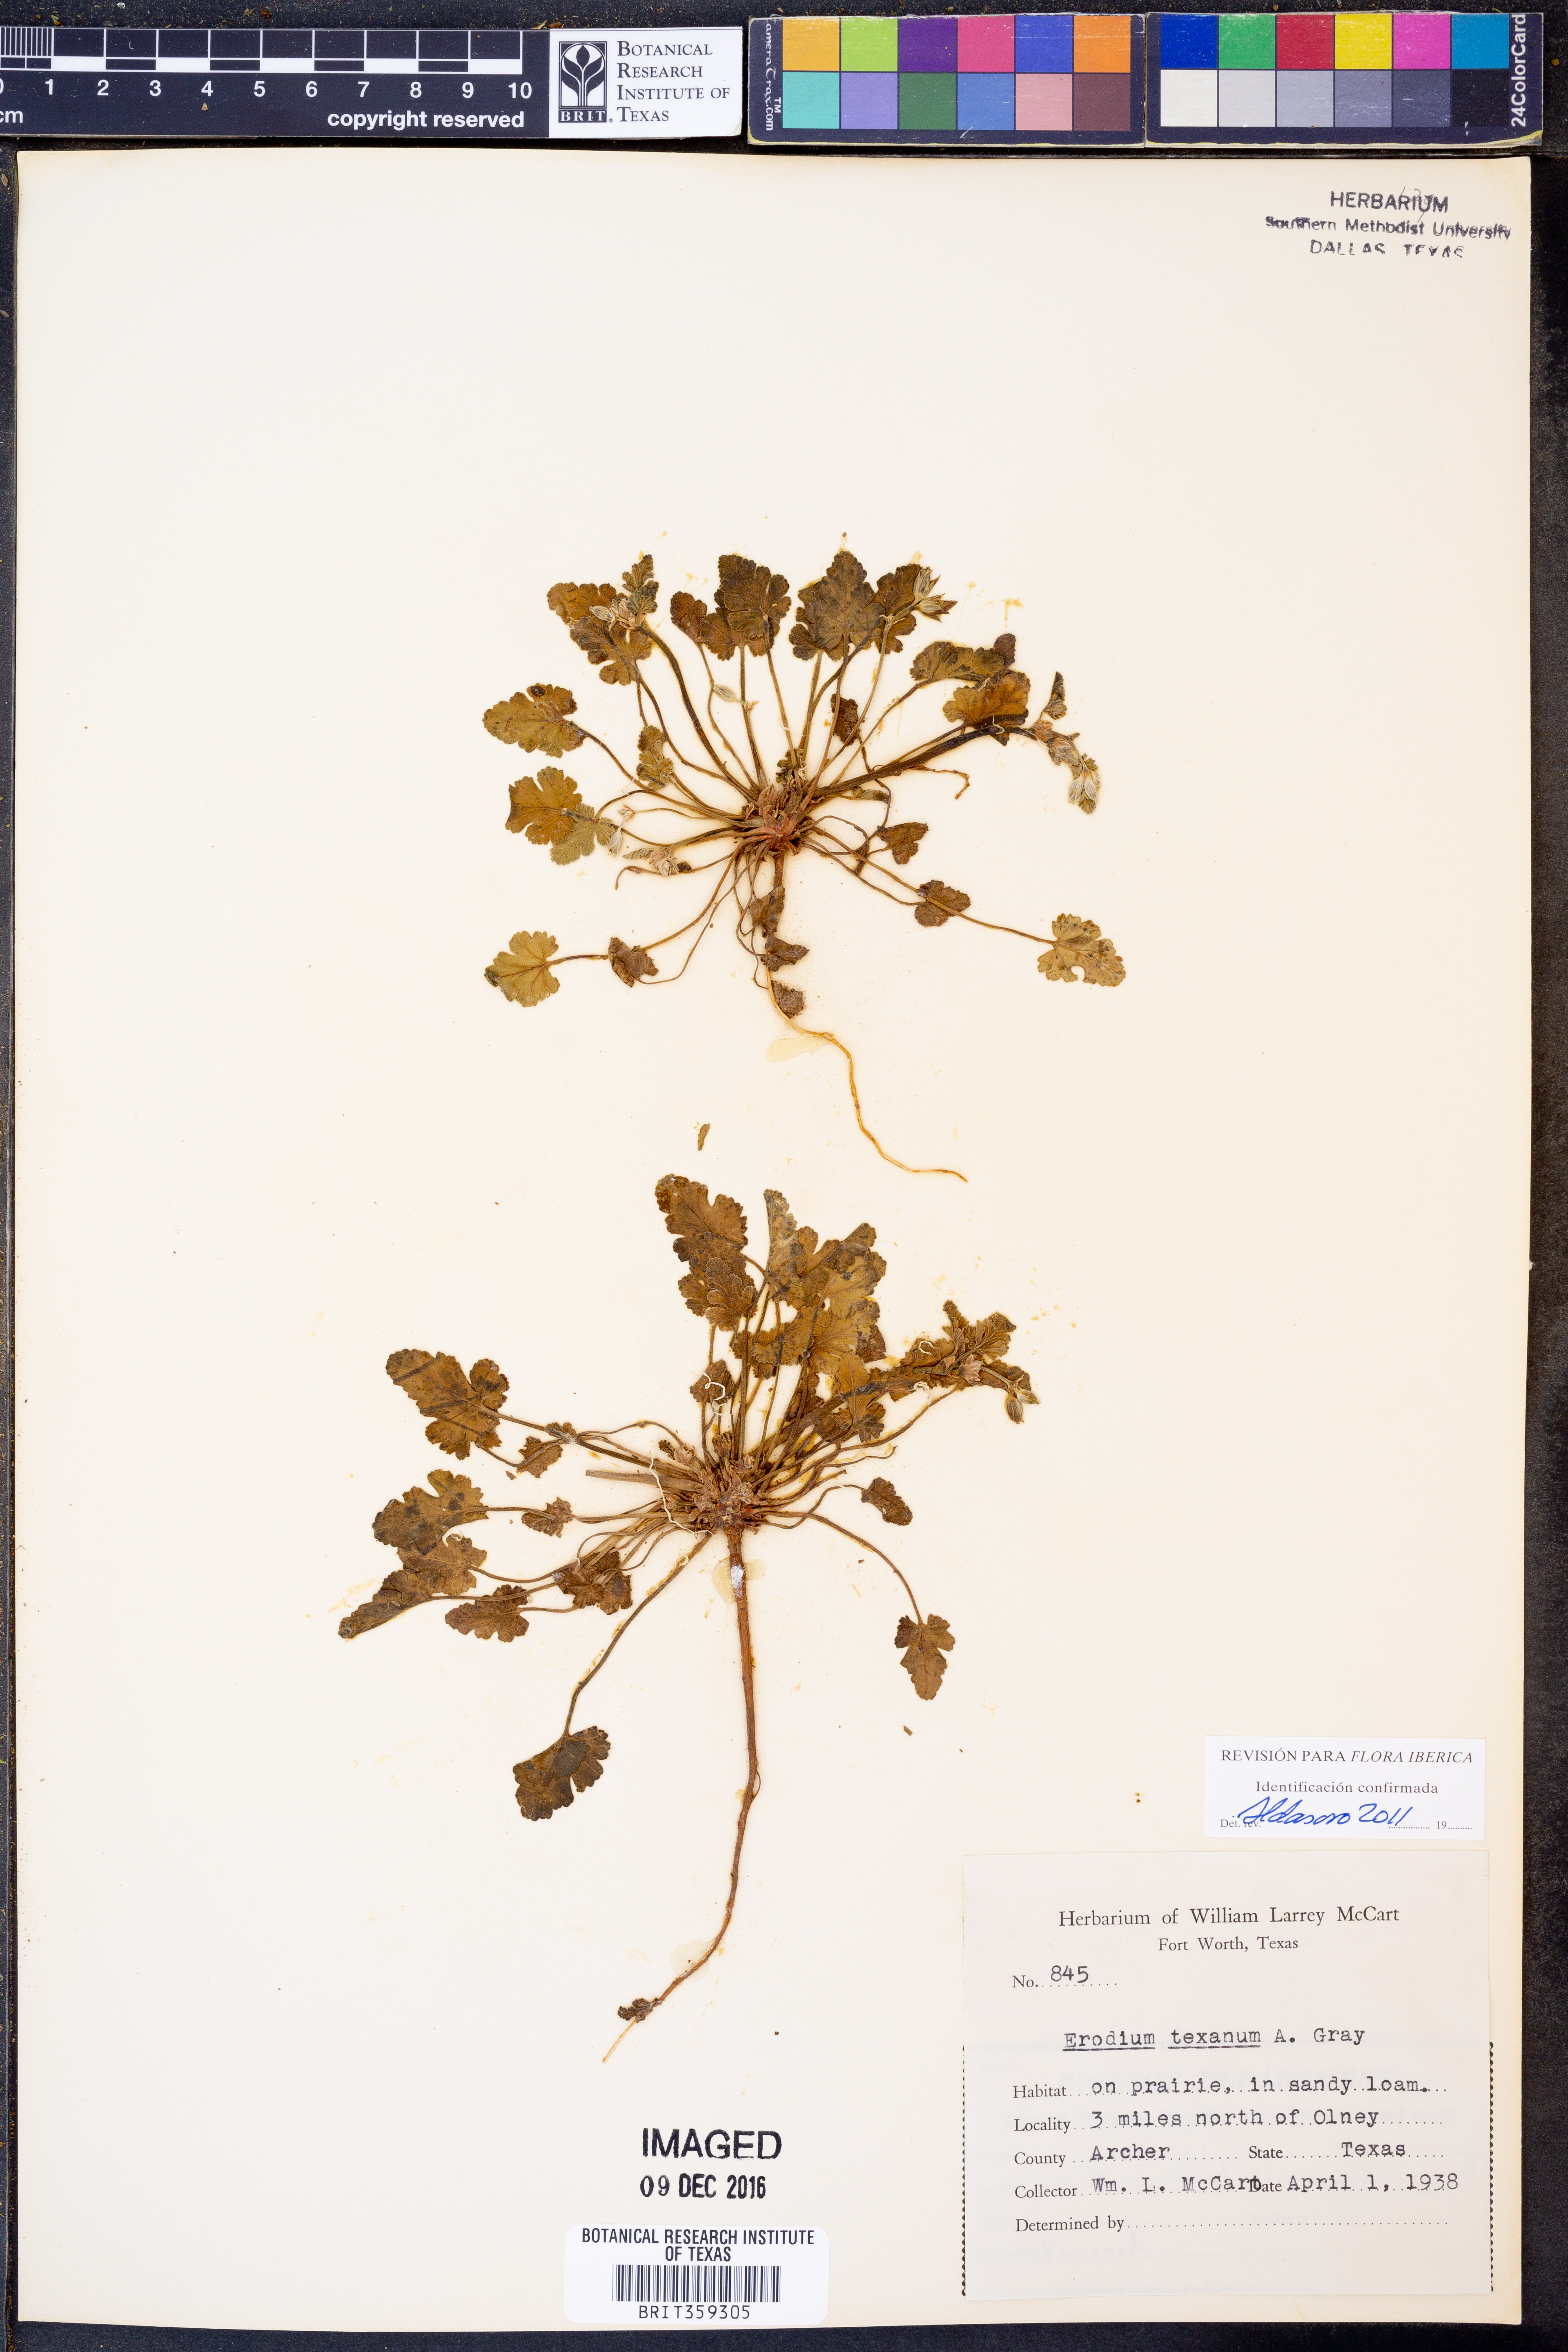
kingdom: Plantae
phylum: Tracheophyta
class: Magnoliopsida
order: Geraniales
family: Geraniaceae
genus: Erodium
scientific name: Erodium texanum
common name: Texas stork's-bill
